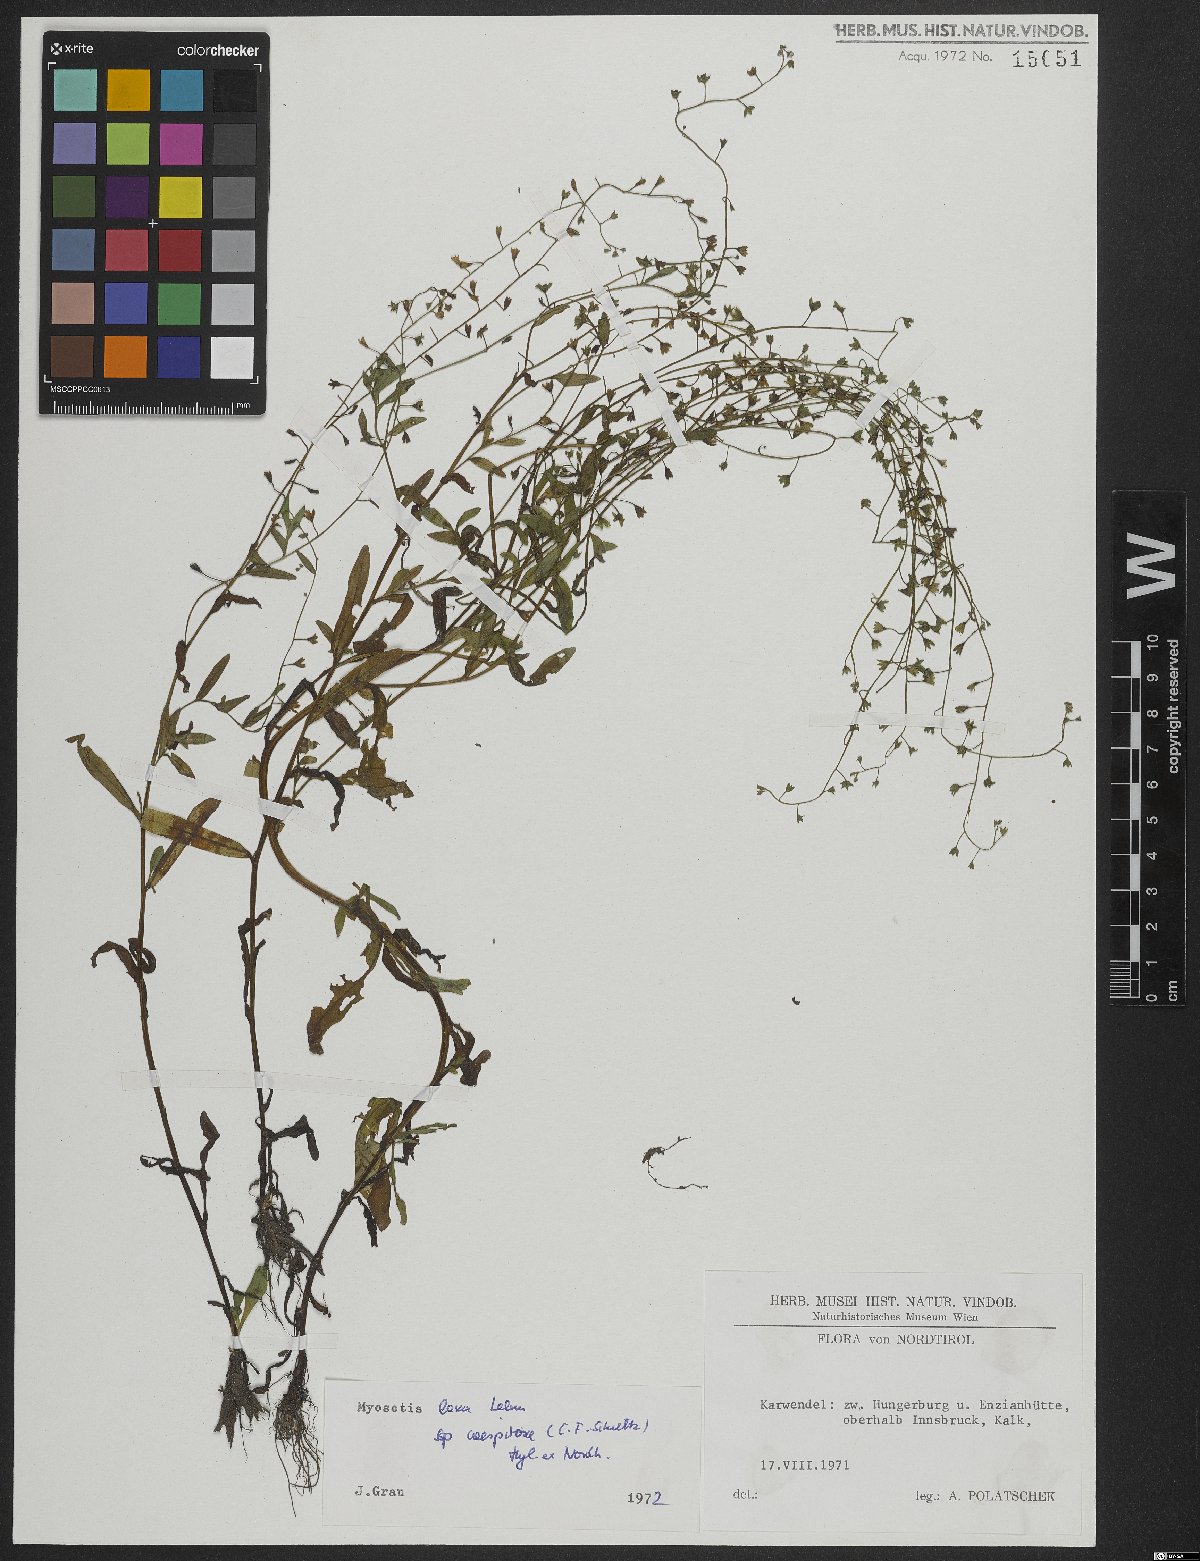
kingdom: Plantae
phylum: Tracheophyta
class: Magnoliopsida
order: Boraginales
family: Boraginaceae
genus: Myosotis
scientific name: Myosotis laxa
